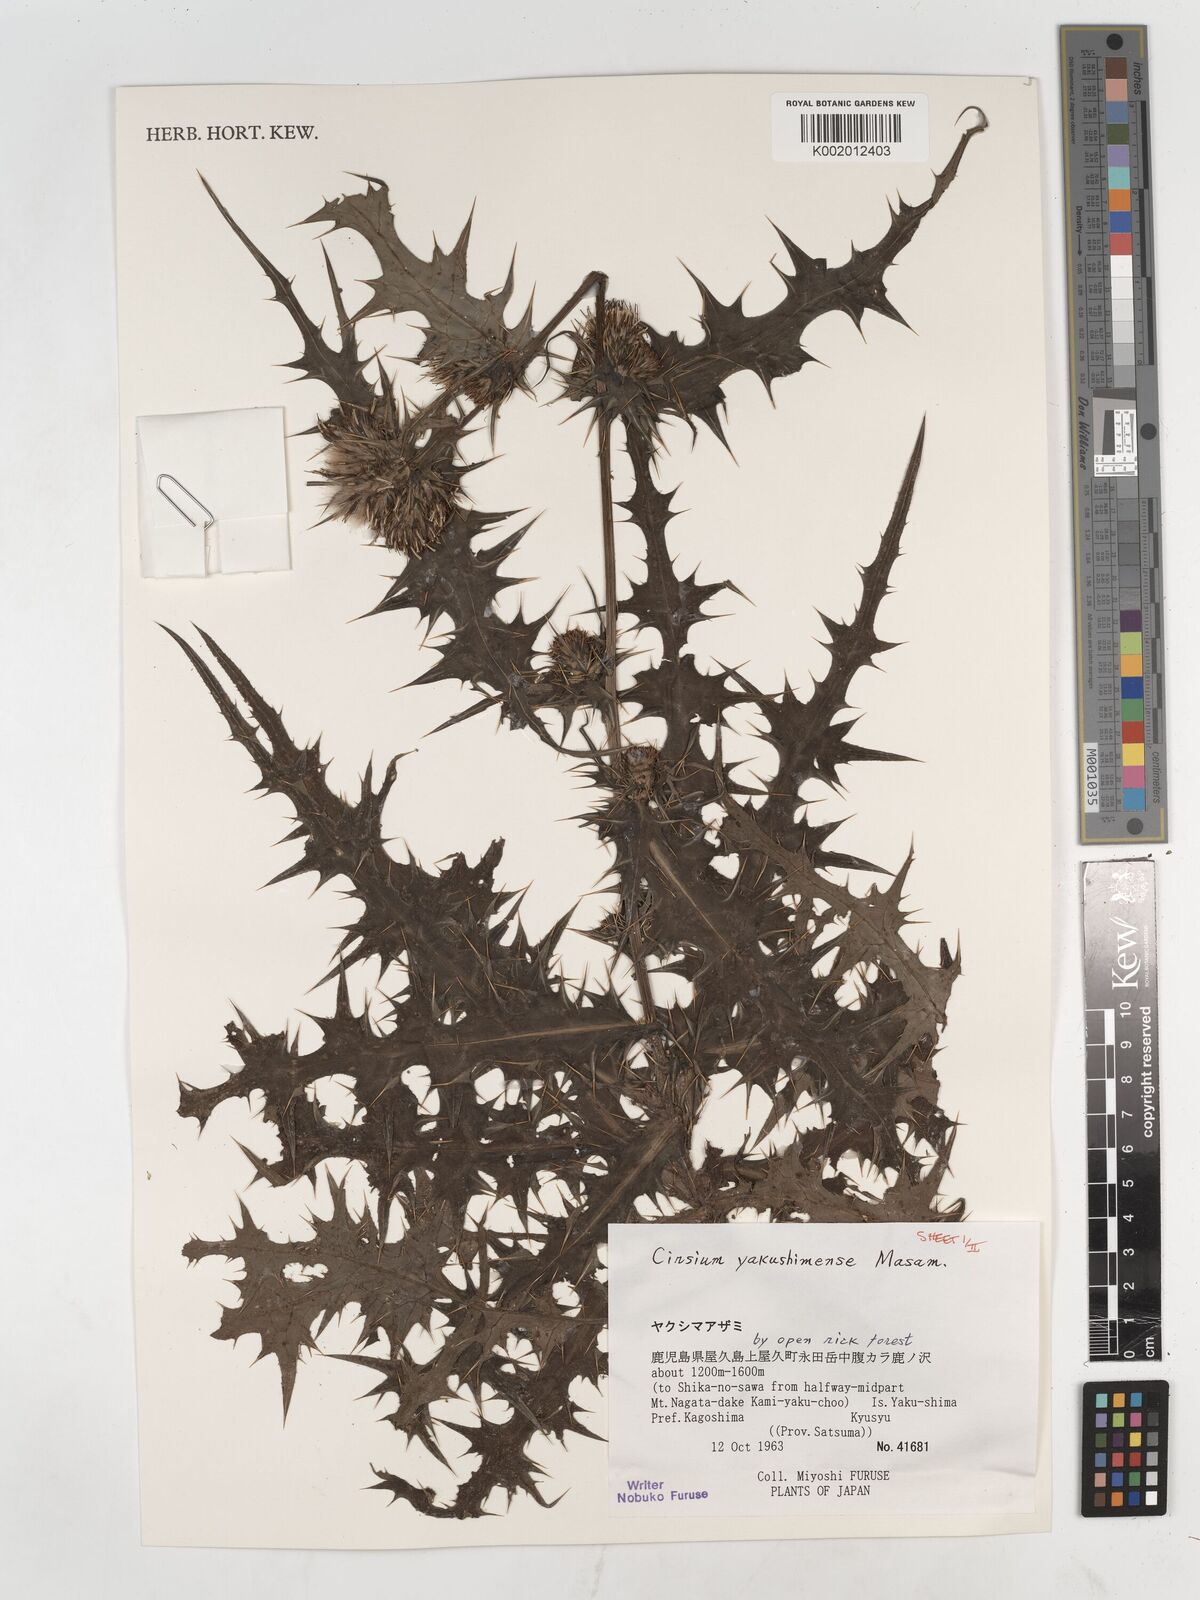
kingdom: Plantae
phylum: Tracheophyta
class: Magnoliopsida
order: Asterales
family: Asteraceae
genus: Cirsium
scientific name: Cirsium yakusimense
